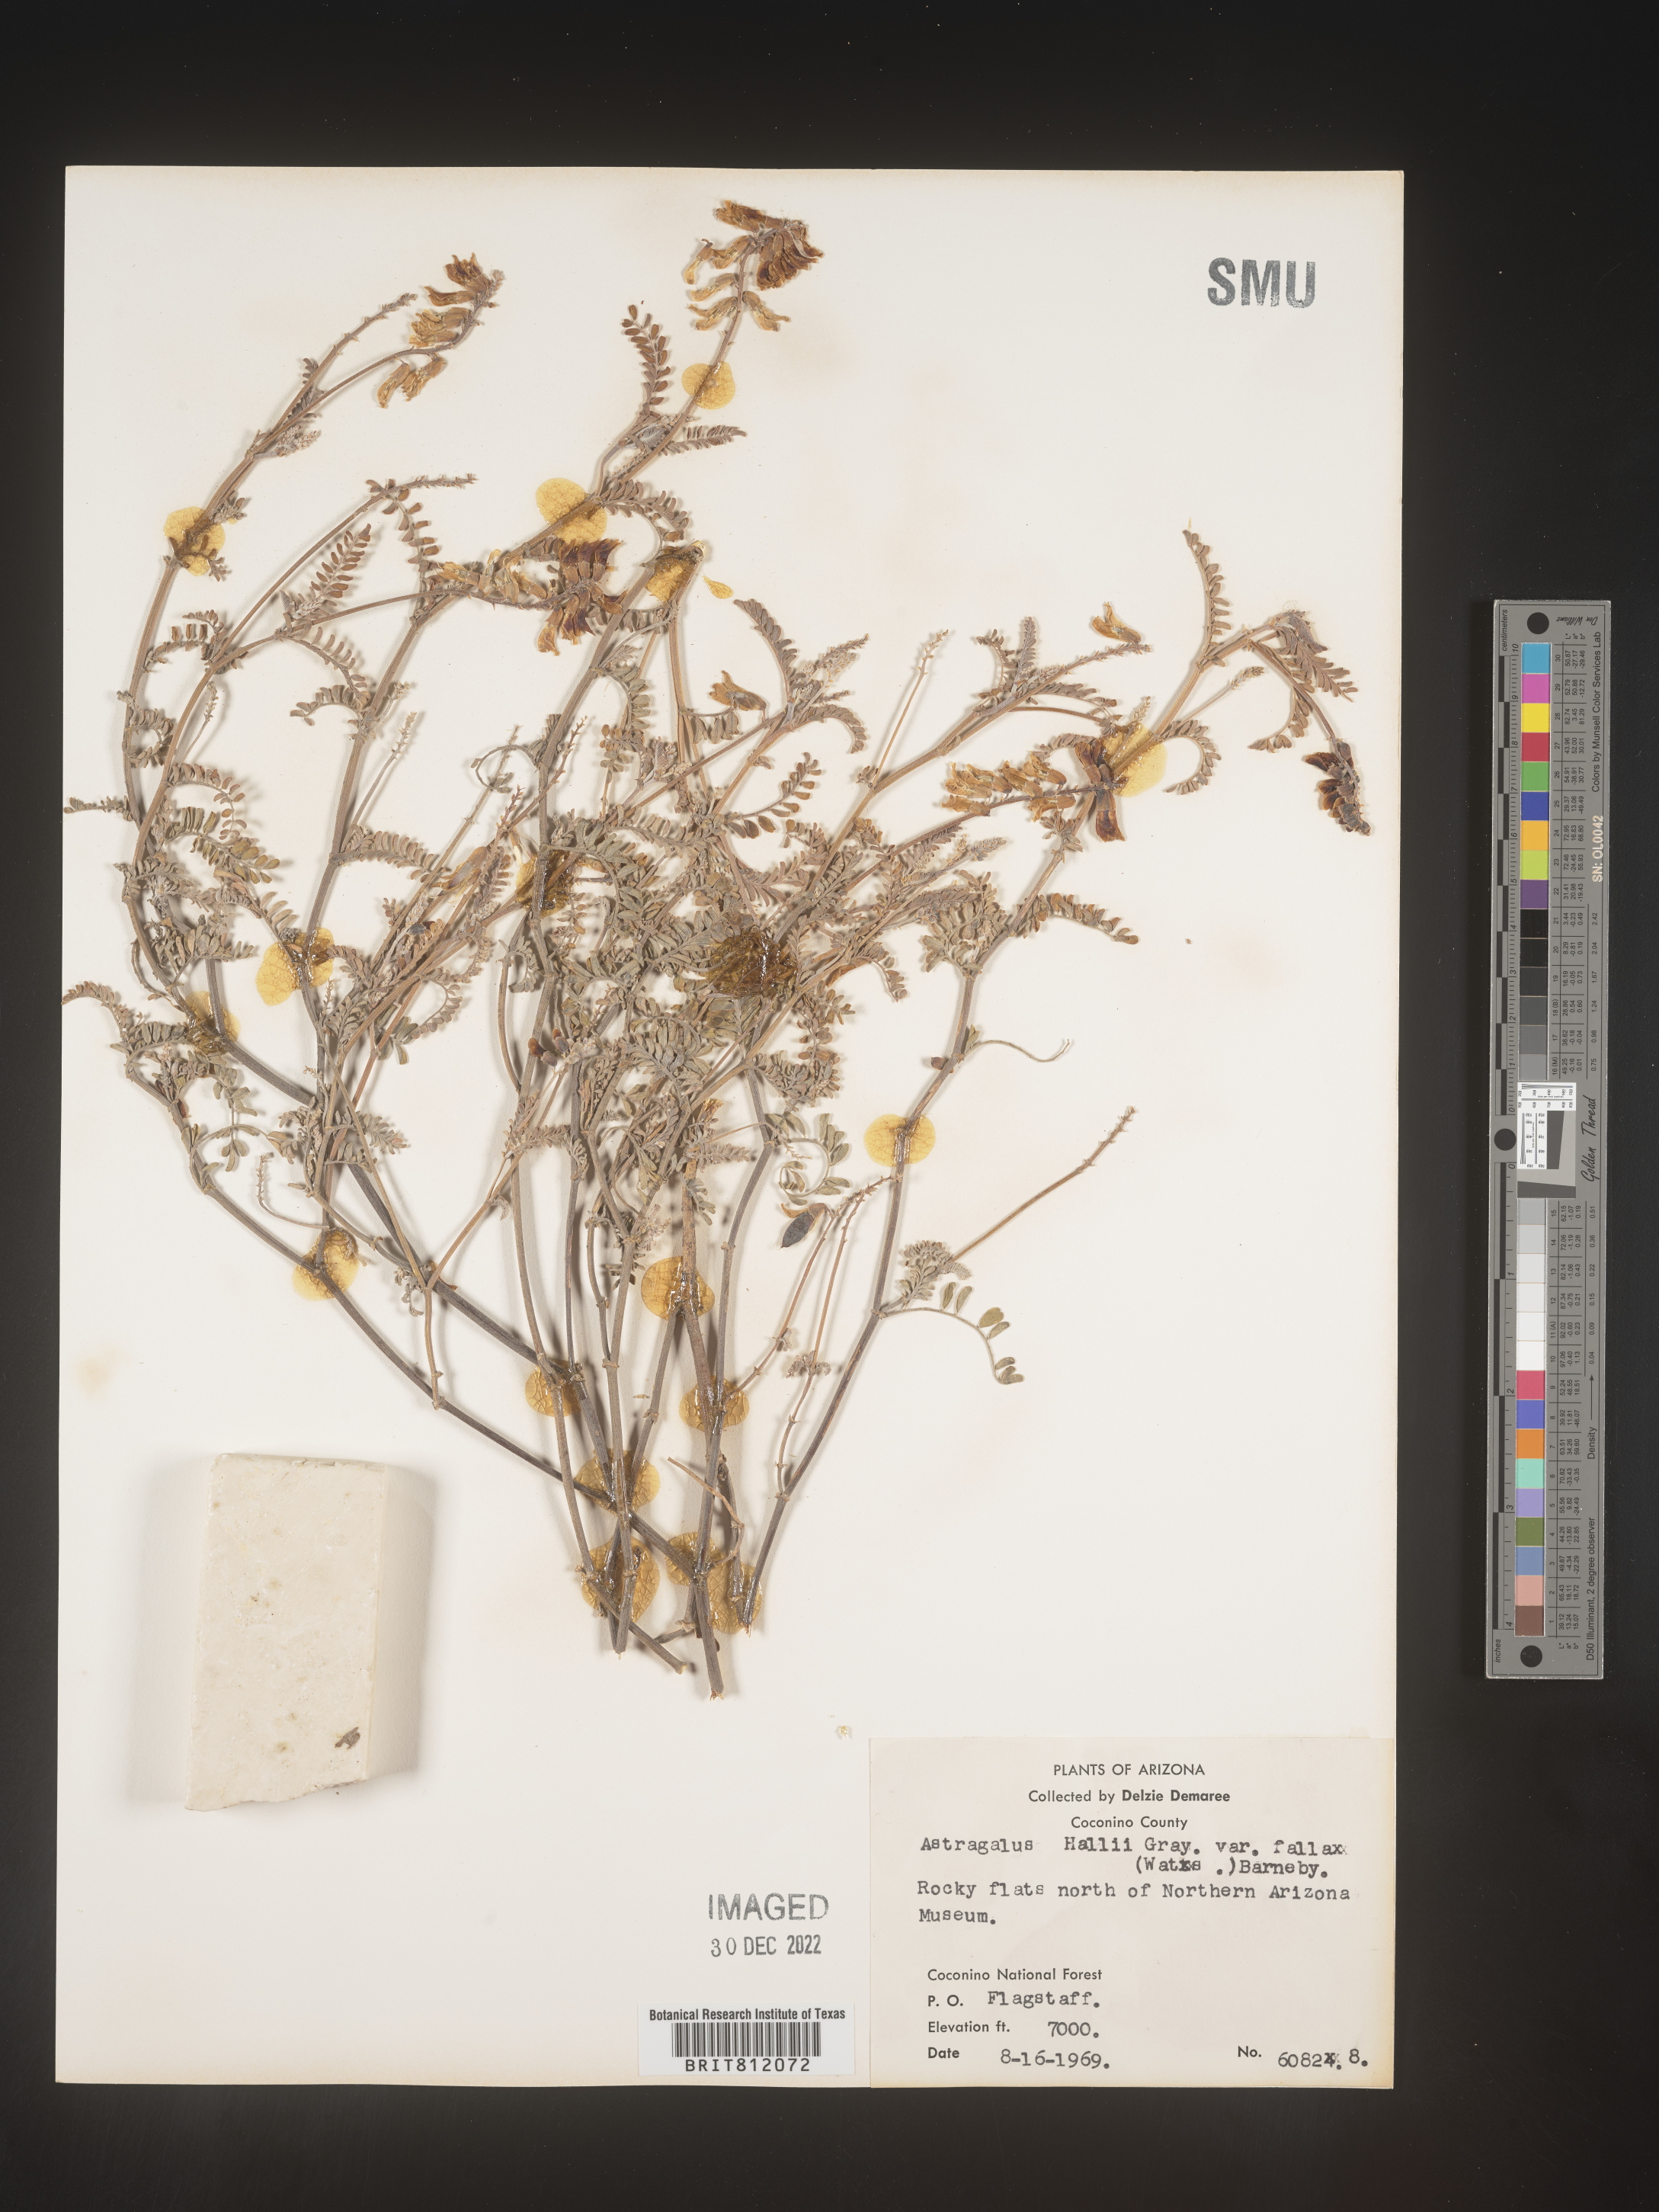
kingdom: Plantae
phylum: Tracheophyta
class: Magnoliopsida
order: Fabales
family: Fabaceae
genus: Astragalus
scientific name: Astragalus
